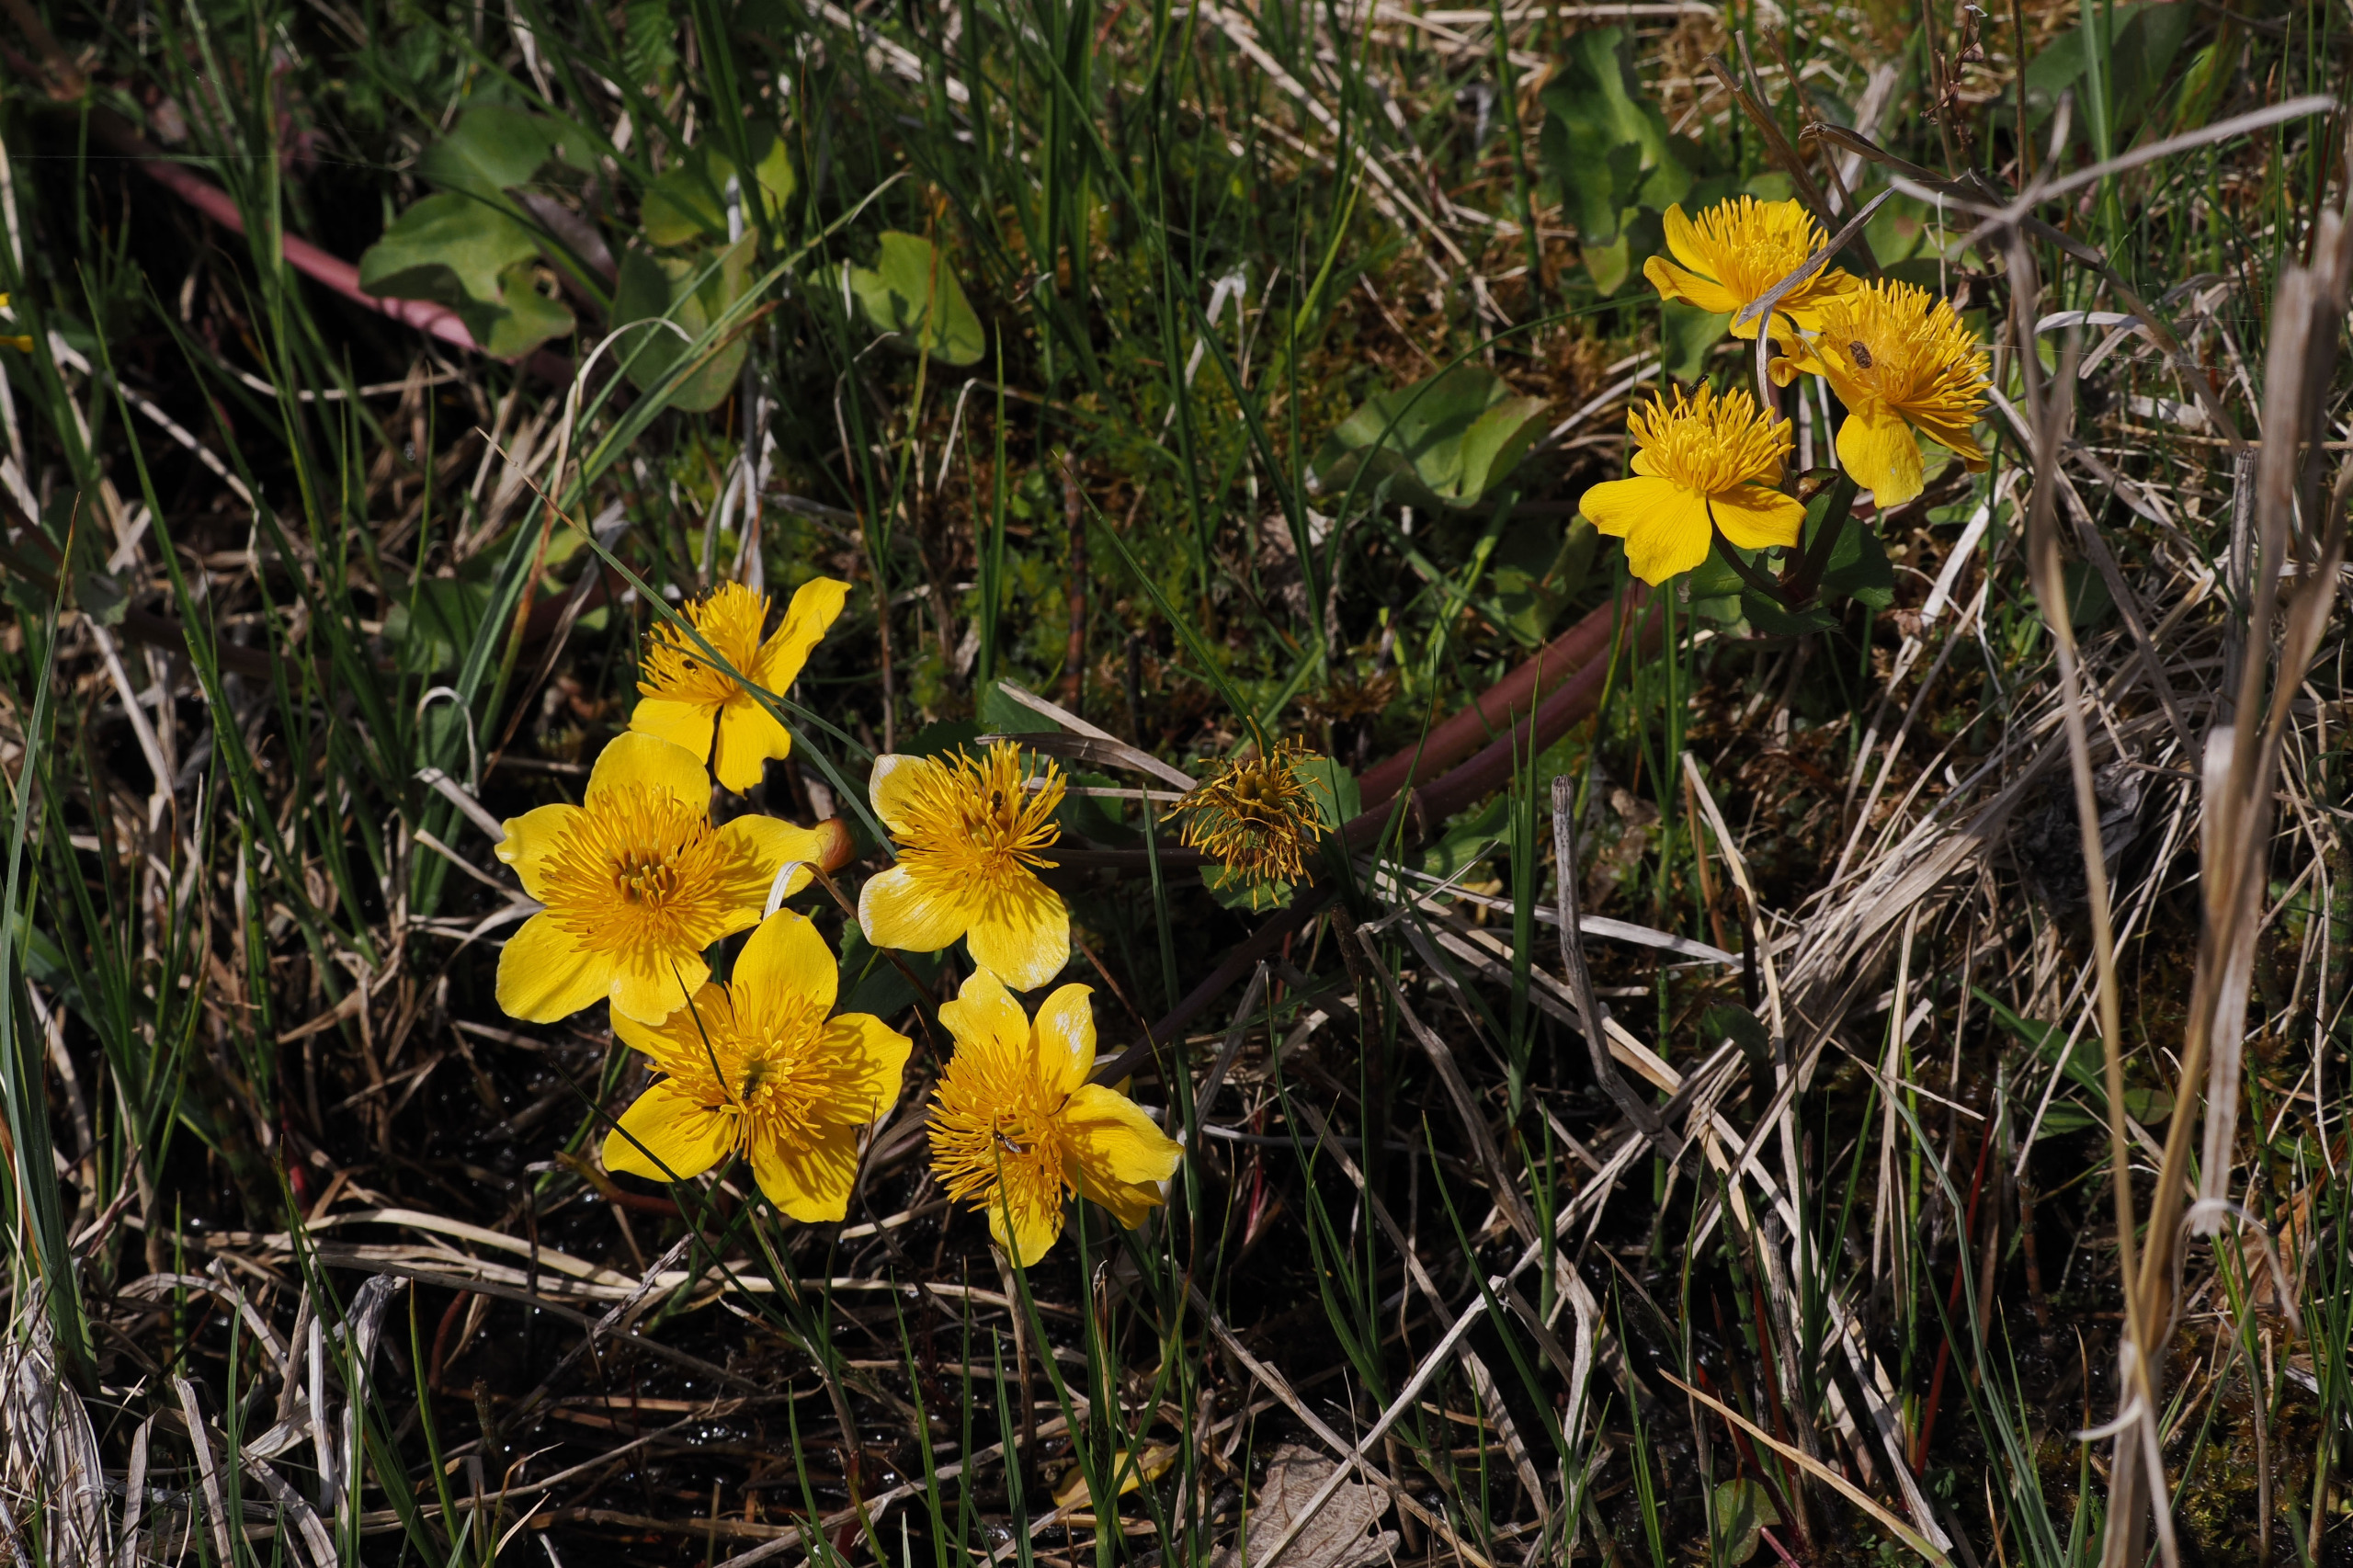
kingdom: Plantae
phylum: Tracheophyta
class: Magnoliopsida
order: Ranunculales
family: Ranunculaceae
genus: Caltha
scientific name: Caltha palustris
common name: Eng-kabbeleje
